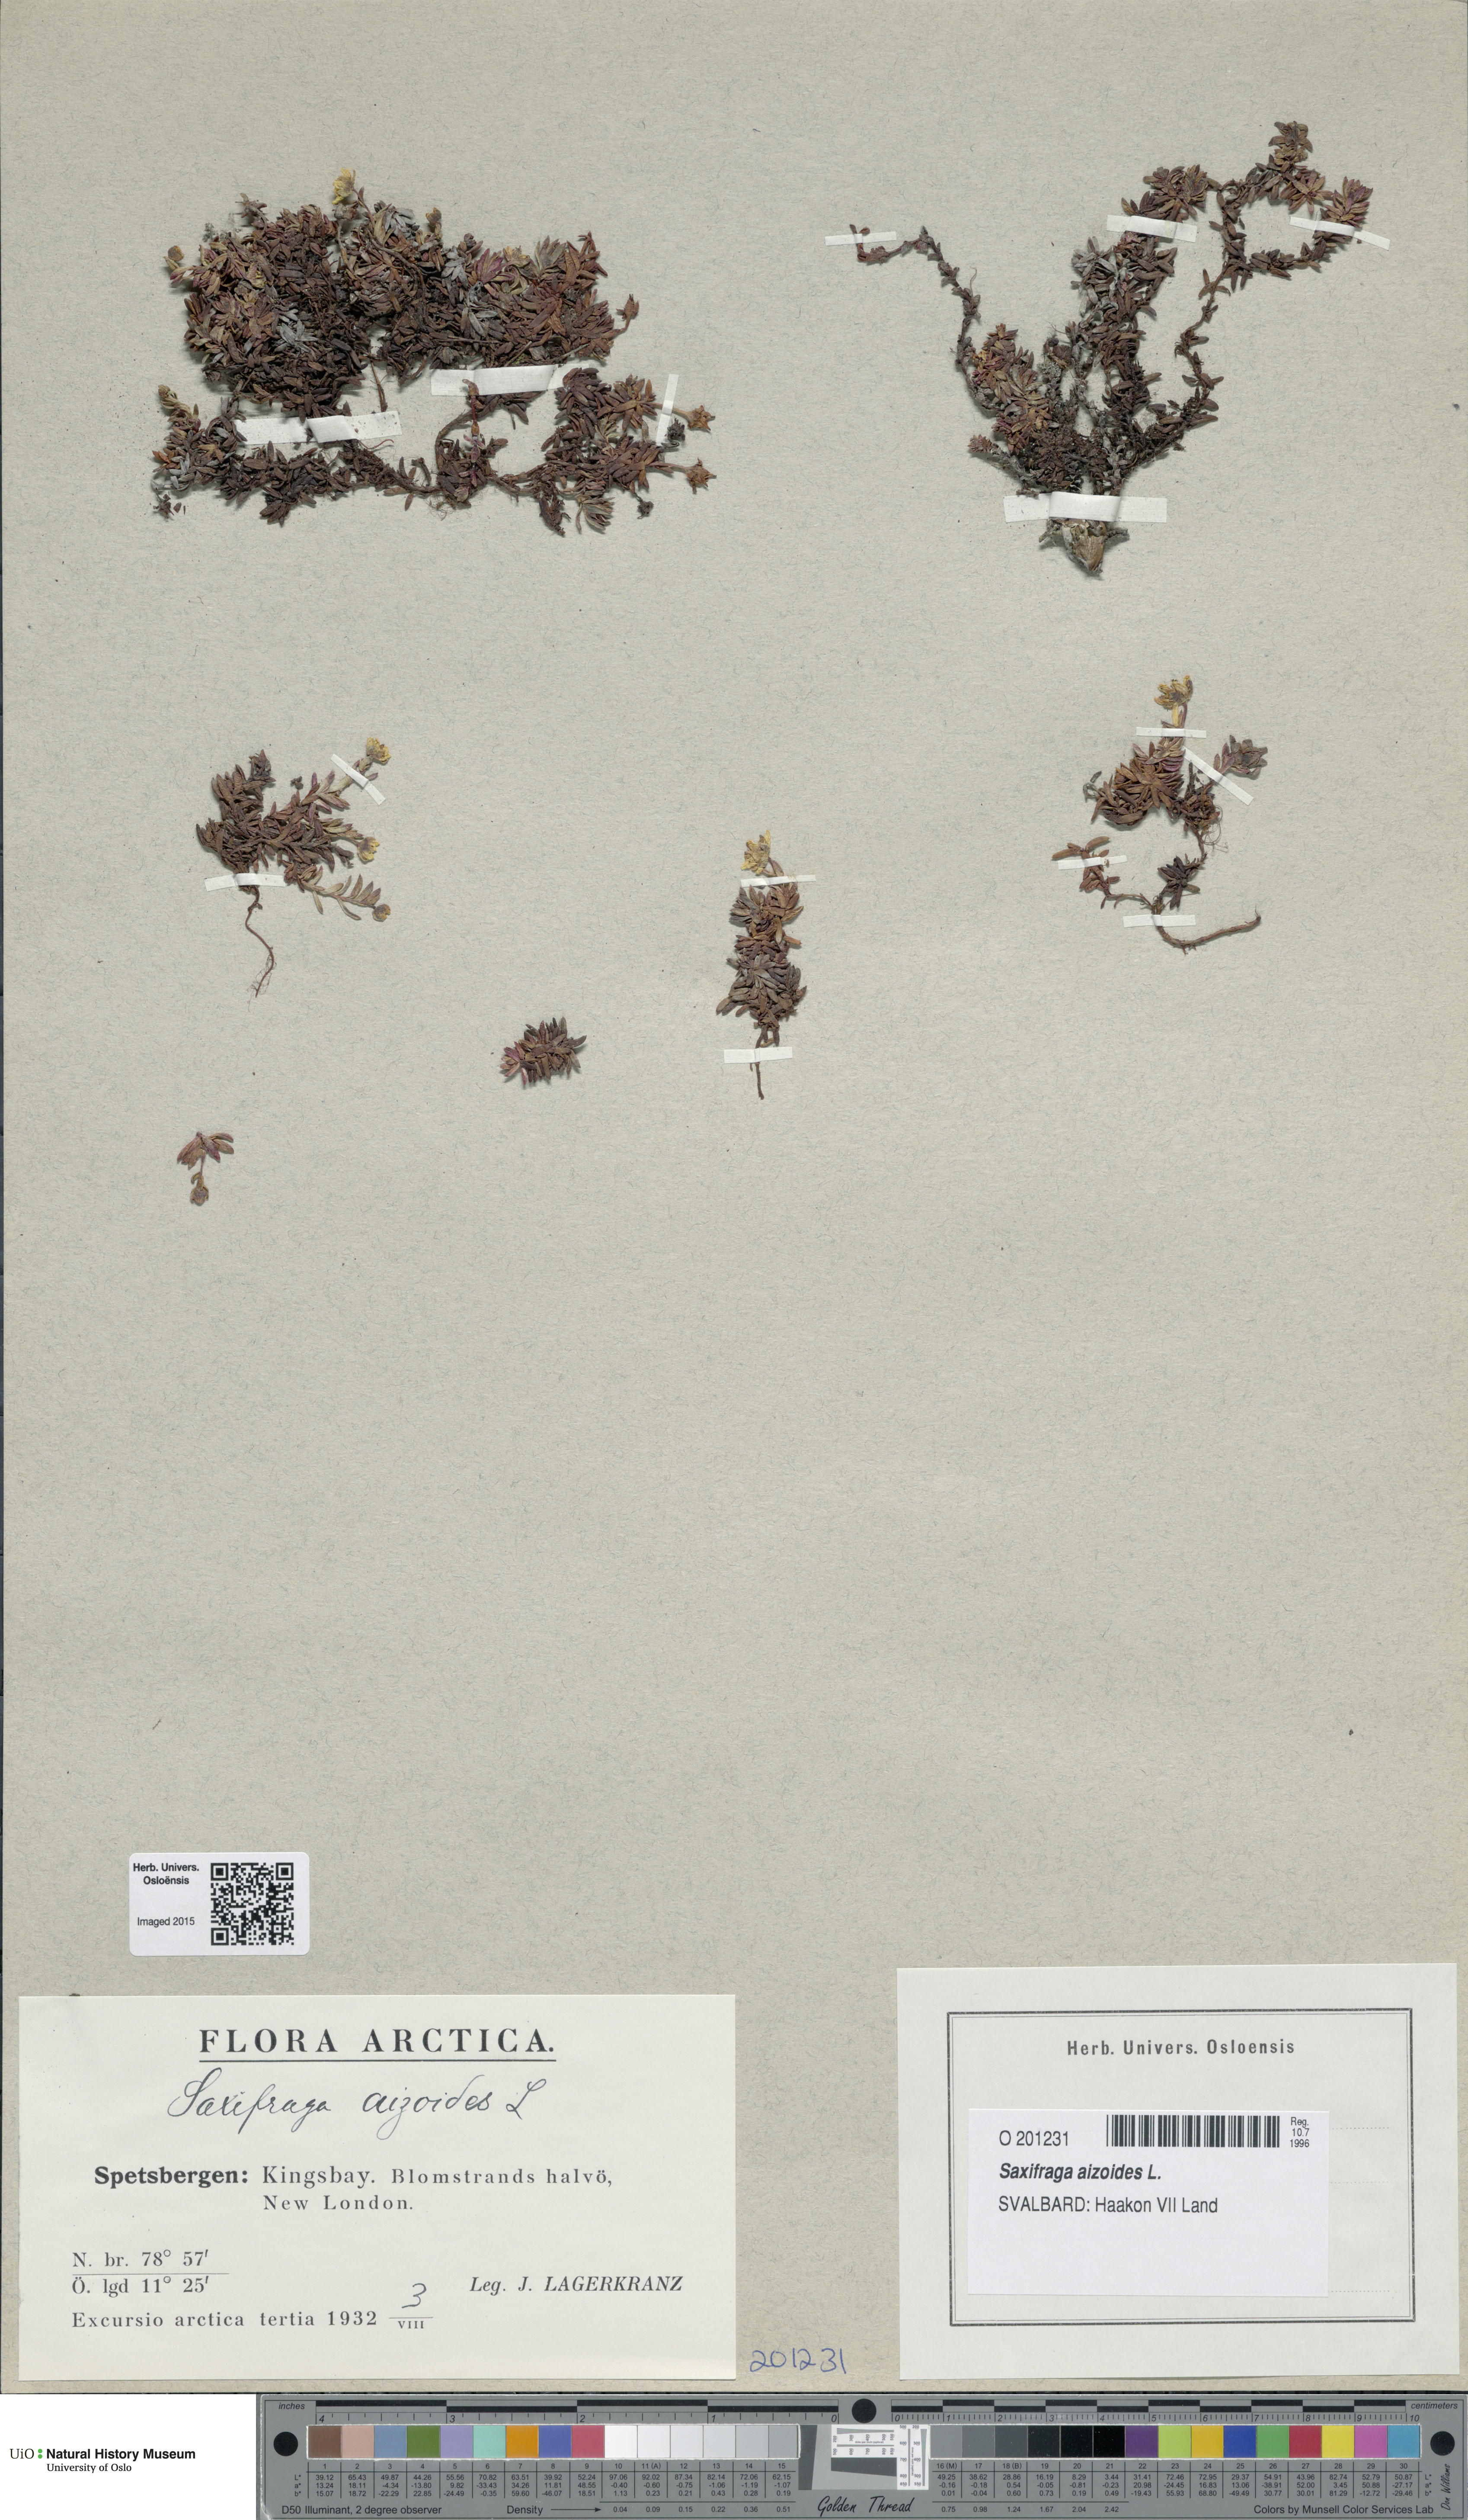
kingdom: Plantae
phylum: Tracheophyta
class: Magnoliopsida
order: Saxifragales
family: Saxifragaceae
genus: Saxifraga
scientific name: Saxifraga aizoides
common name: Yellow mountain saxifrage
